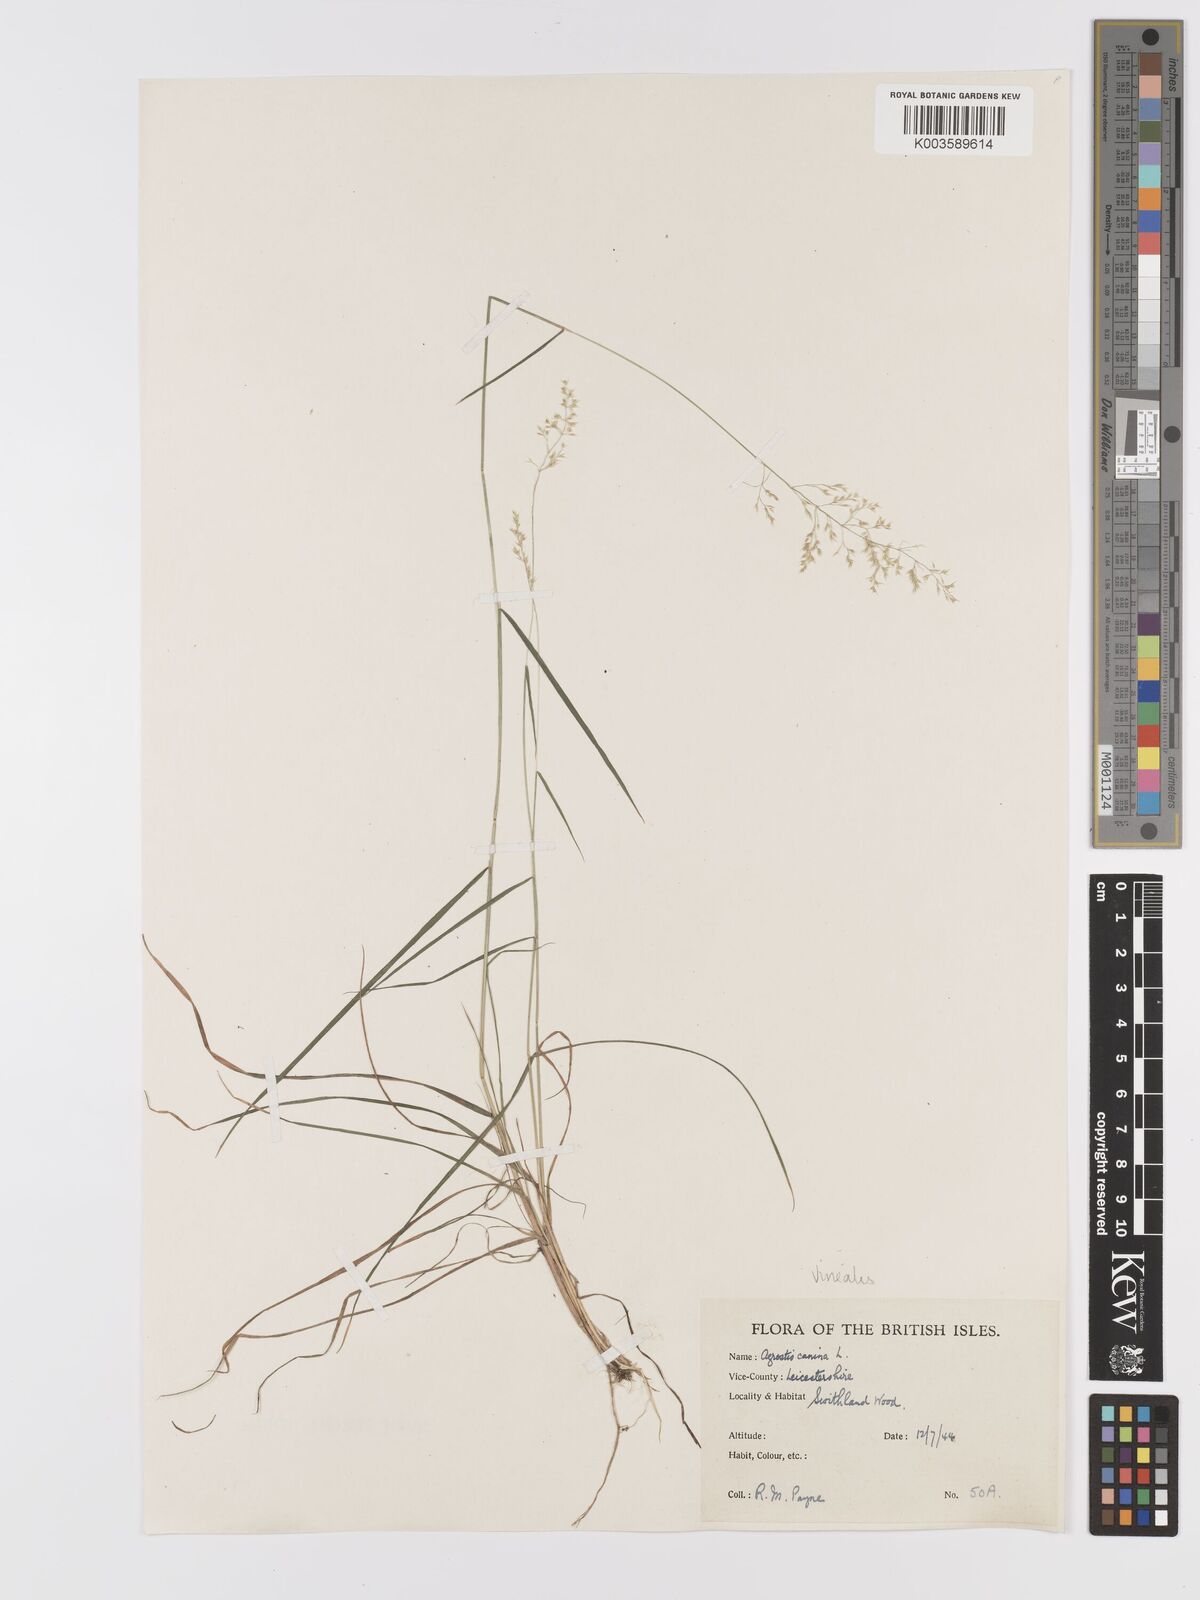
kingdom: Plantae
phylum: Tracheophyta
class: Liliopsida
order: Poales
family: Poaceae
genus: Agrostis
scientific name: Agrostis
